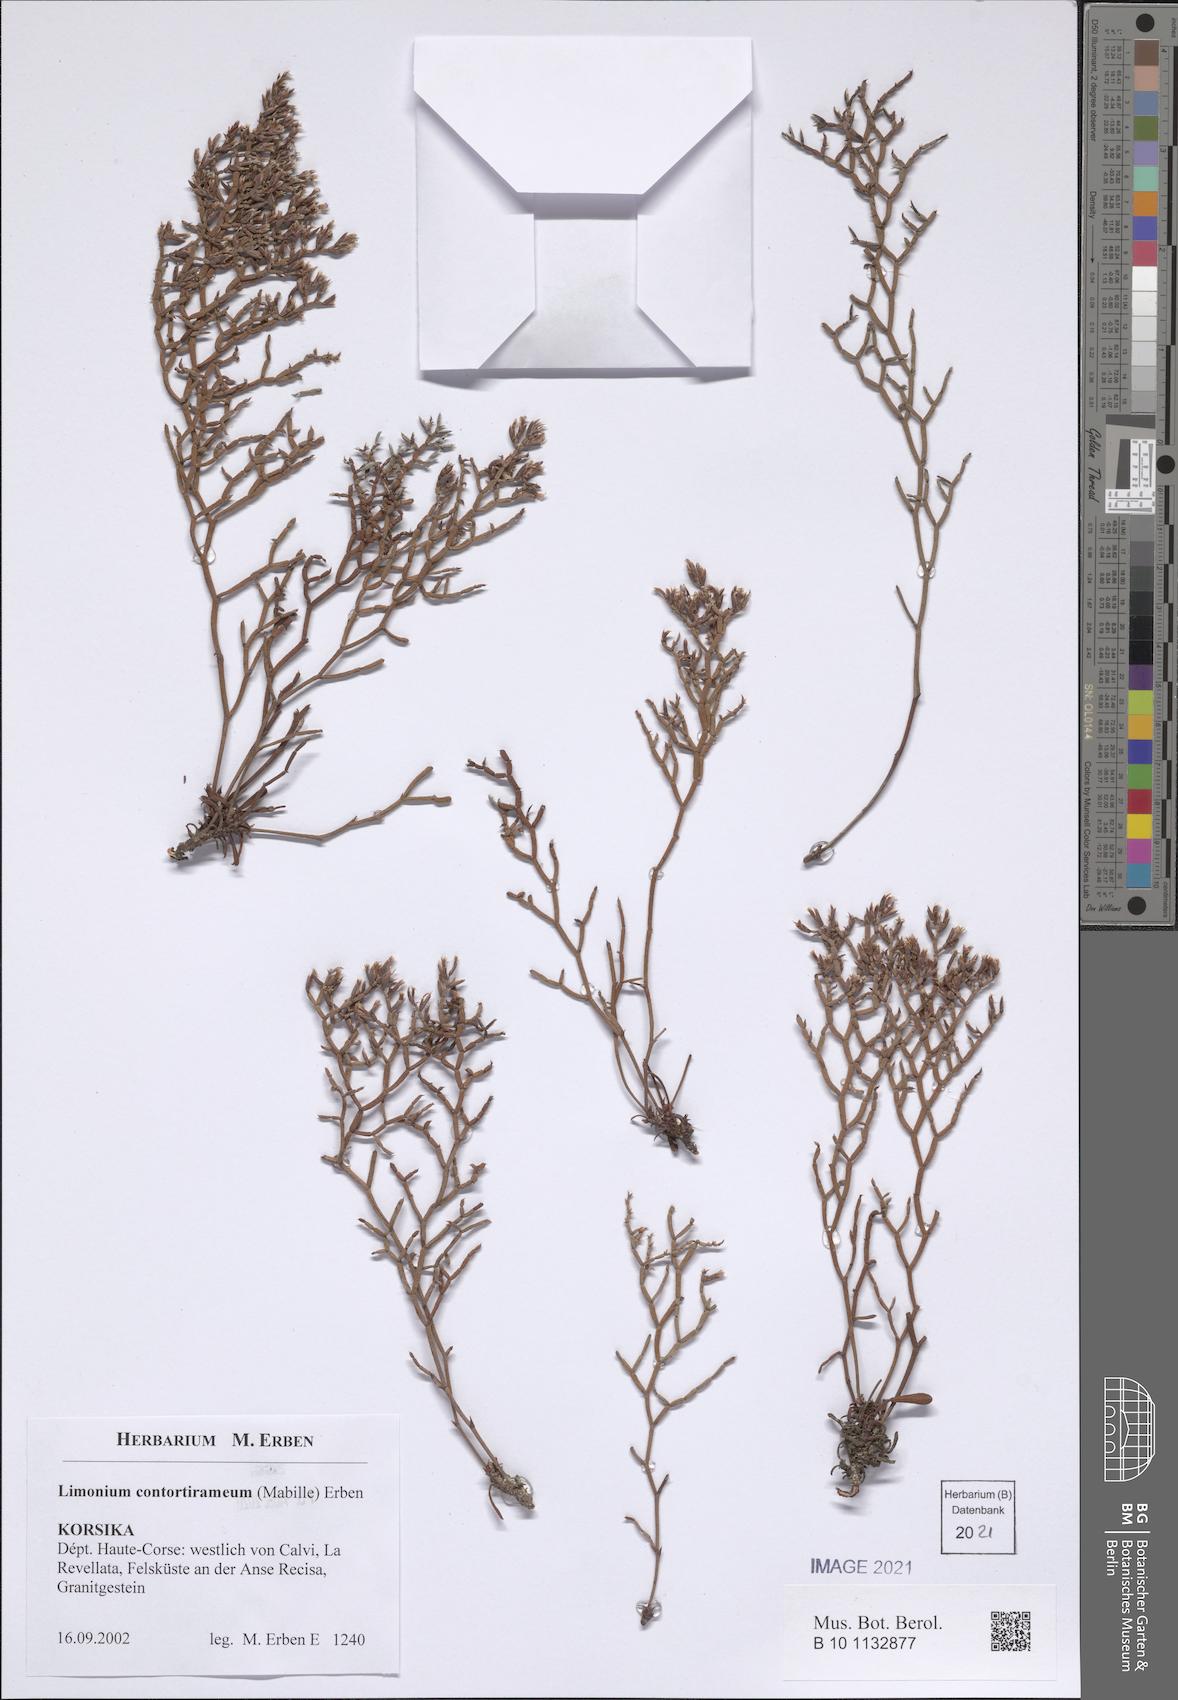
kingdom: Plantae
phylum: Tracheophyta
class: Magnoliopsida
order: Caryophyllales
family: Plumbaginaceae
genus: Limonium
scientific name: Limonium contortirameum
